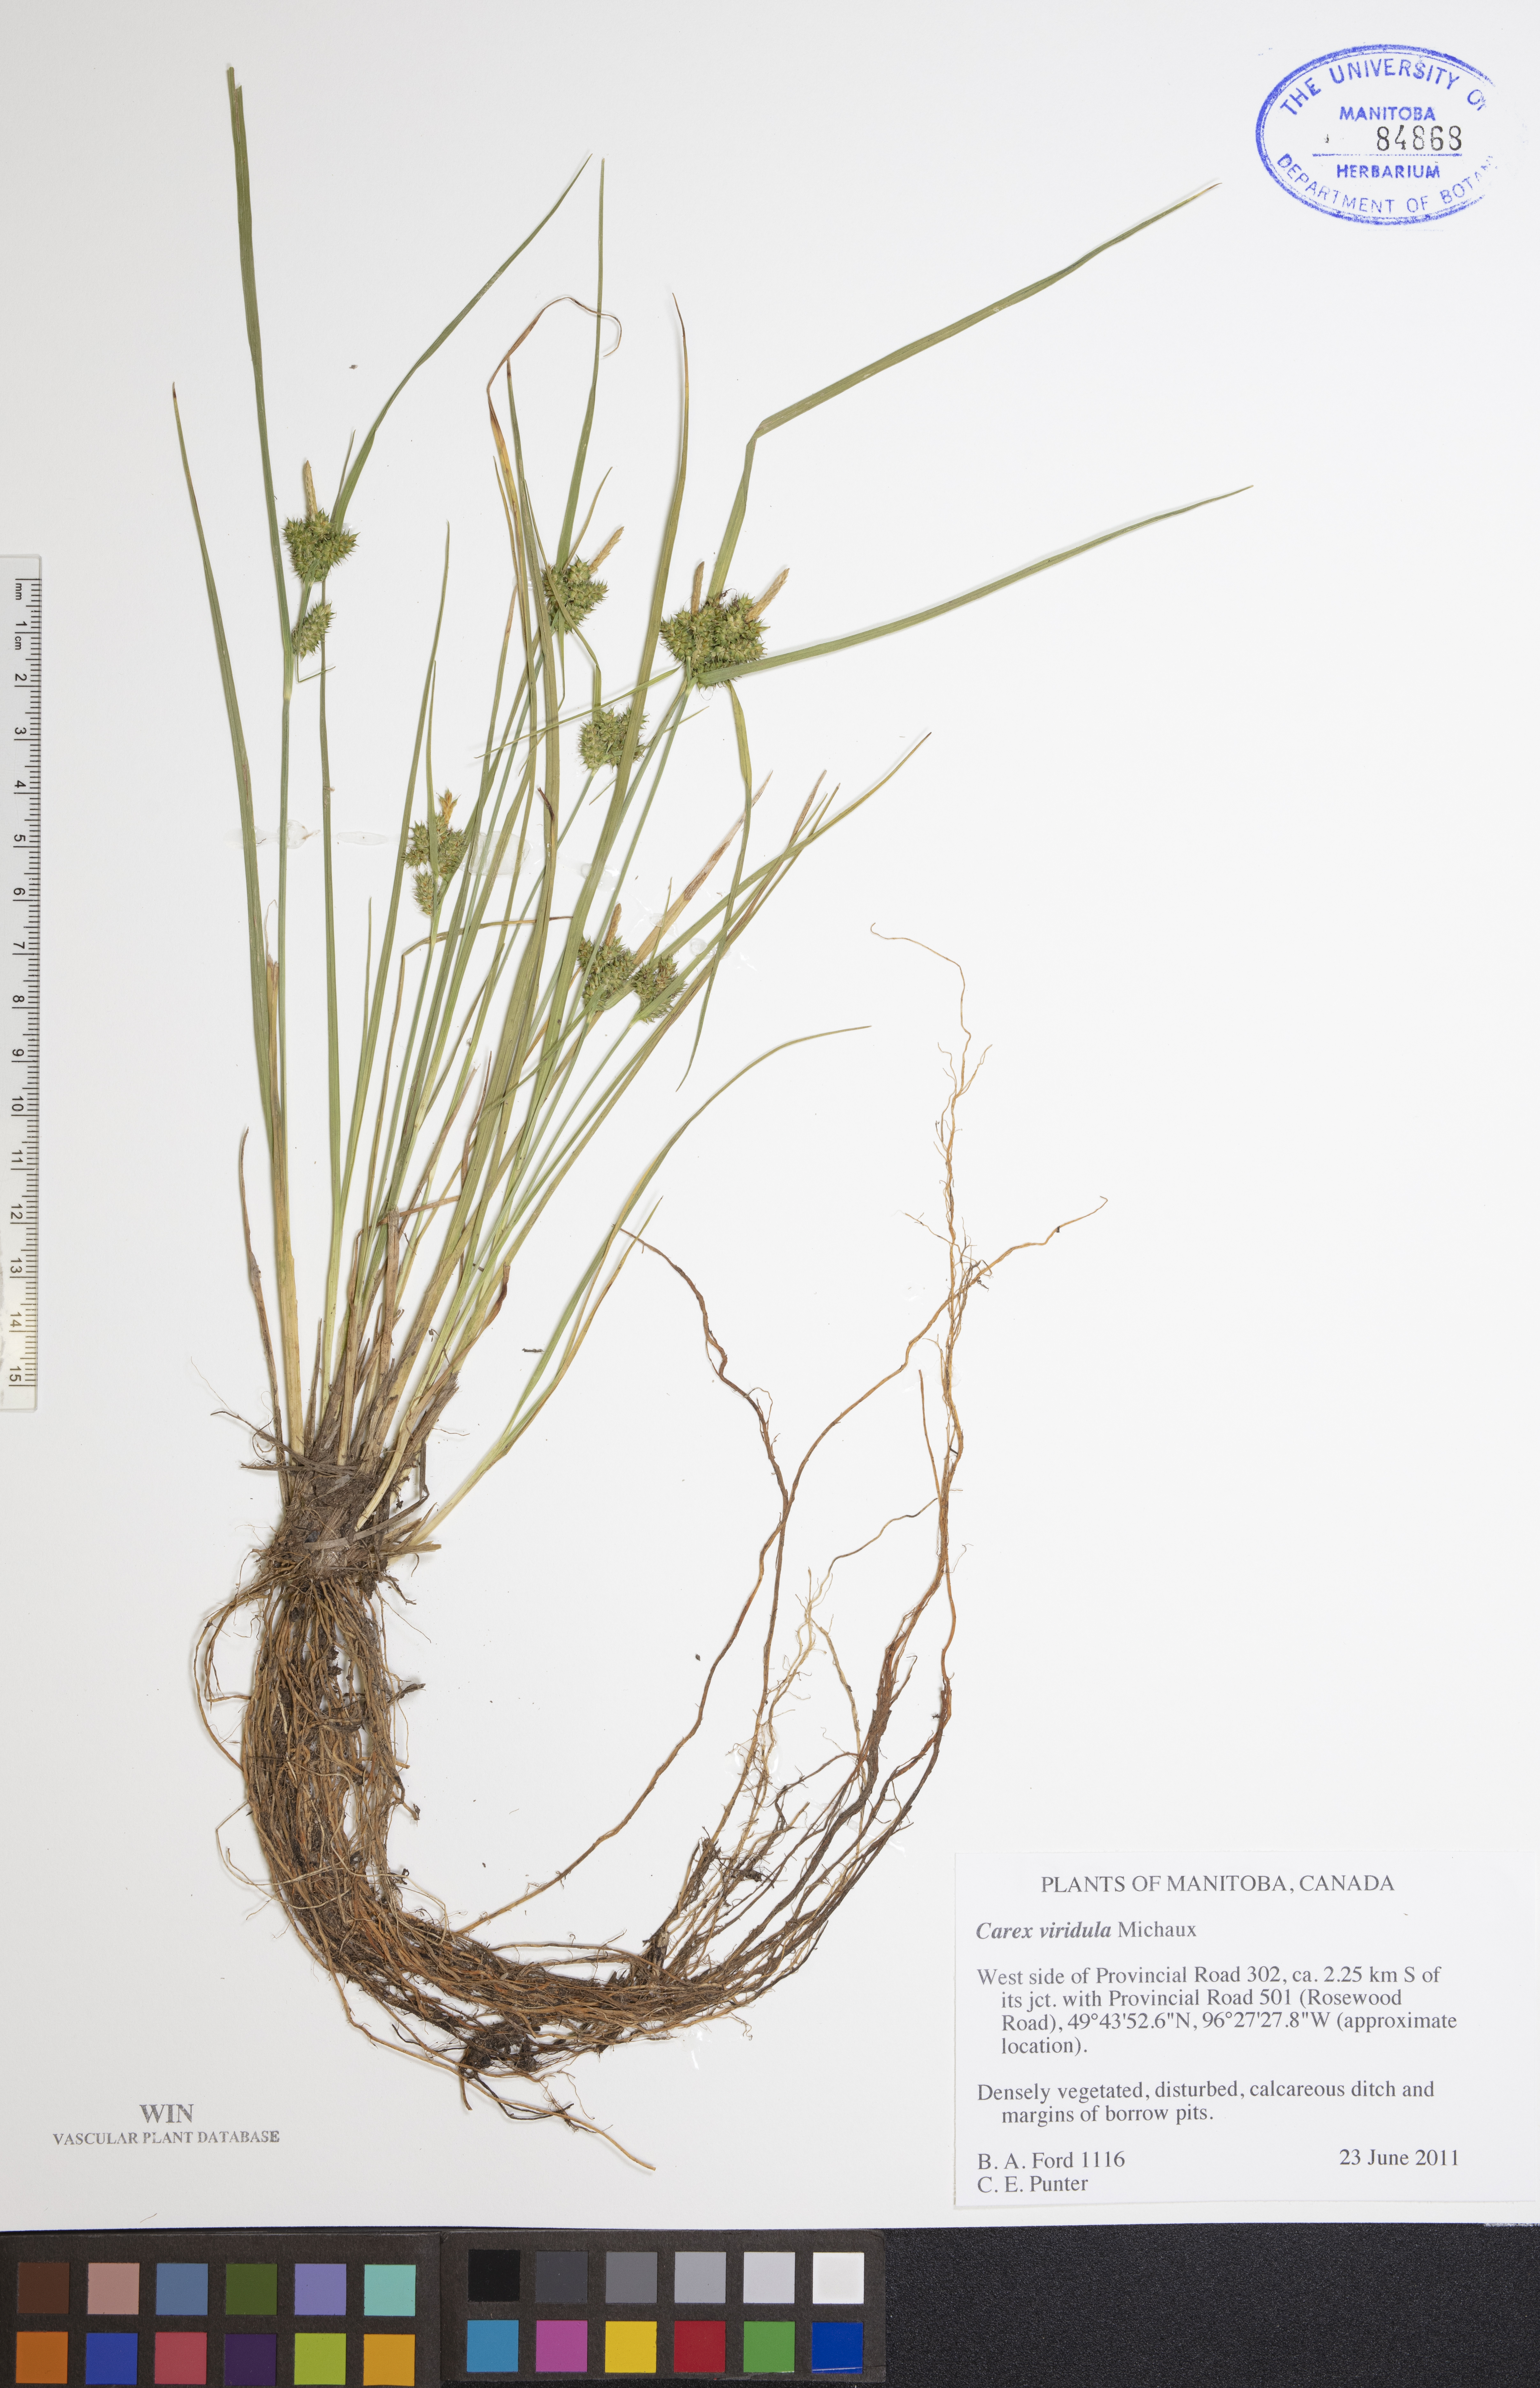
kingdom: Plantae
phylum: Tracheophyta
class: Liliopsida
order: Poales
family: Cyperaceae
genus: Carex
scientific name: Carex oederi
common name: Common & small-fruited yellow-sedge
